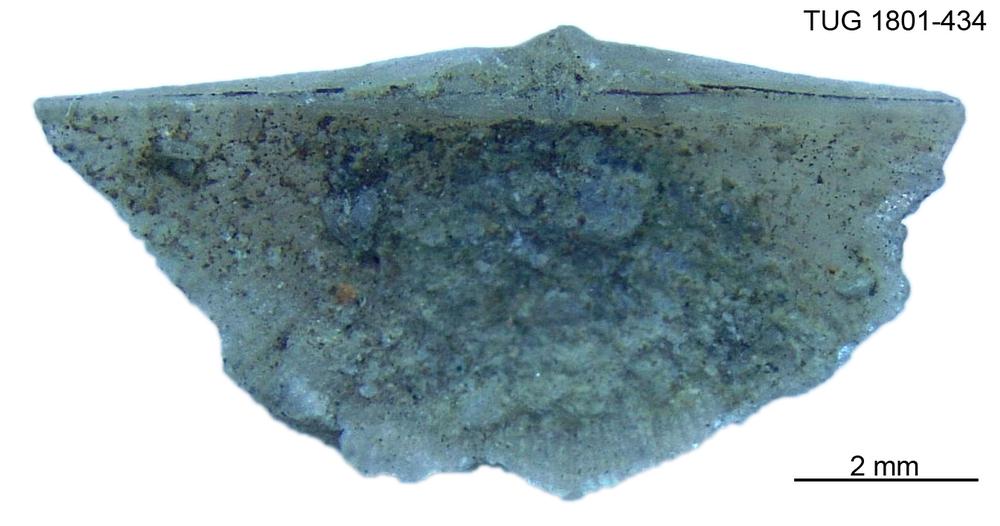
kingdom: Animalia
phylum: Brachiopoda
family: Oldhaminidae
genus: Eoplectodonta
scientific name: Eoplectodonta
